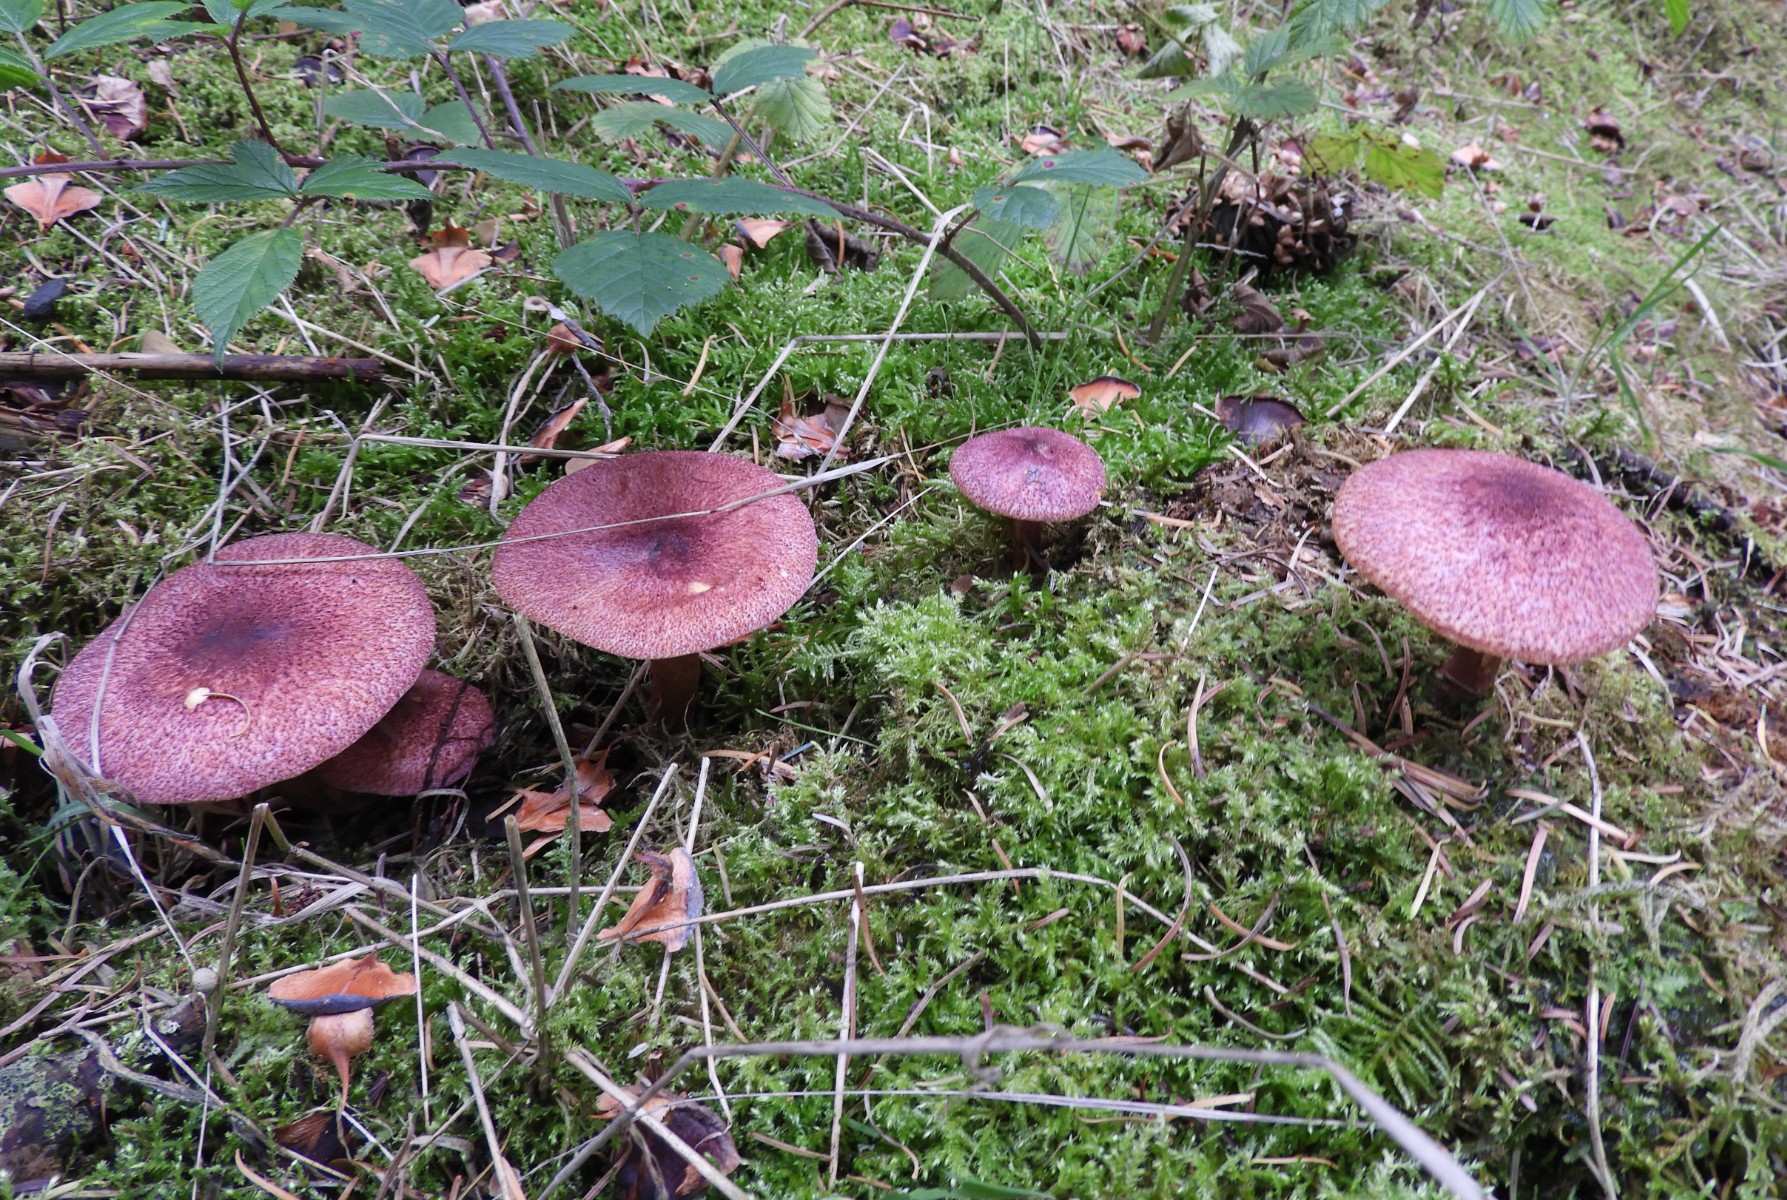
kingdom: Fungi
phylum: Basidiomycota
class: Agaricomycetes
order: Agaricales
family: Tricholomataceae
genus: Tricholomopsis
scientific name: Tricholomopsis rutilans
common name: purpur-væbnerhat
